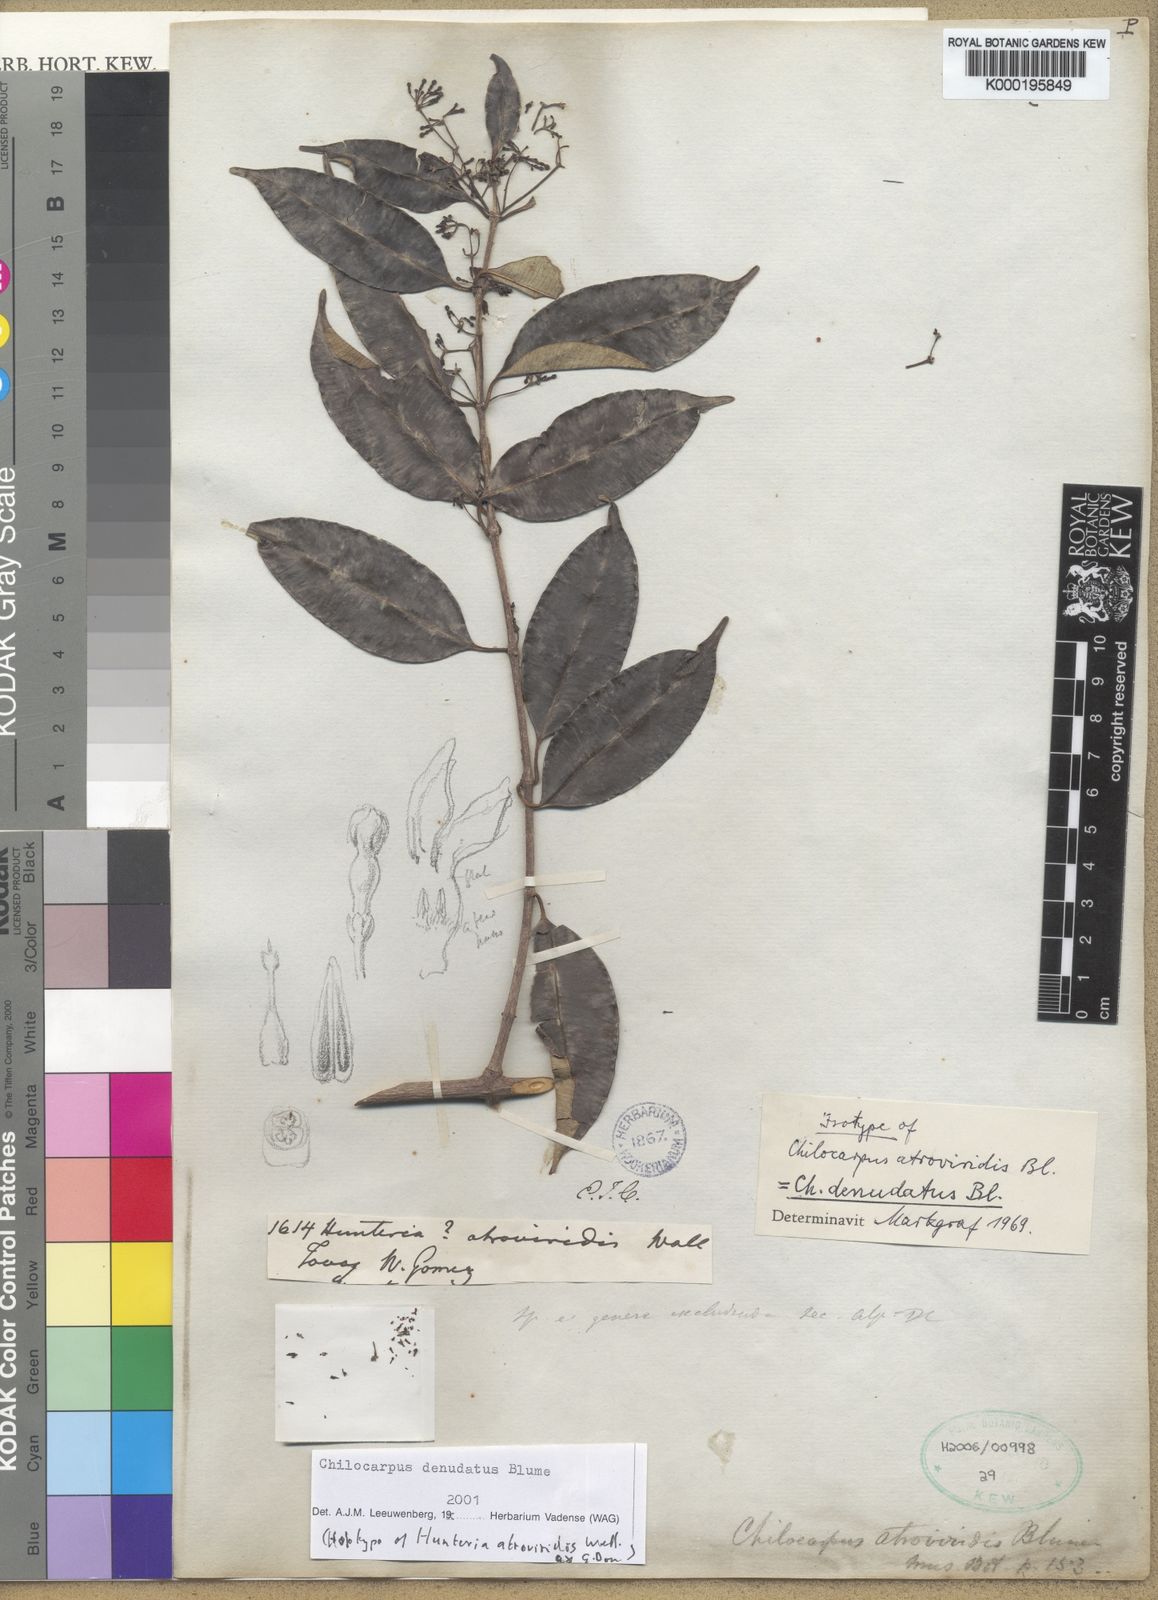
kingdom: Plantae
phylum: Tracheophyta
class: Magnoliopsida
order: Gentianales
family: Apocynaceae
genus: Chilocarpus
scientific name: Chilocarpus denudatus
